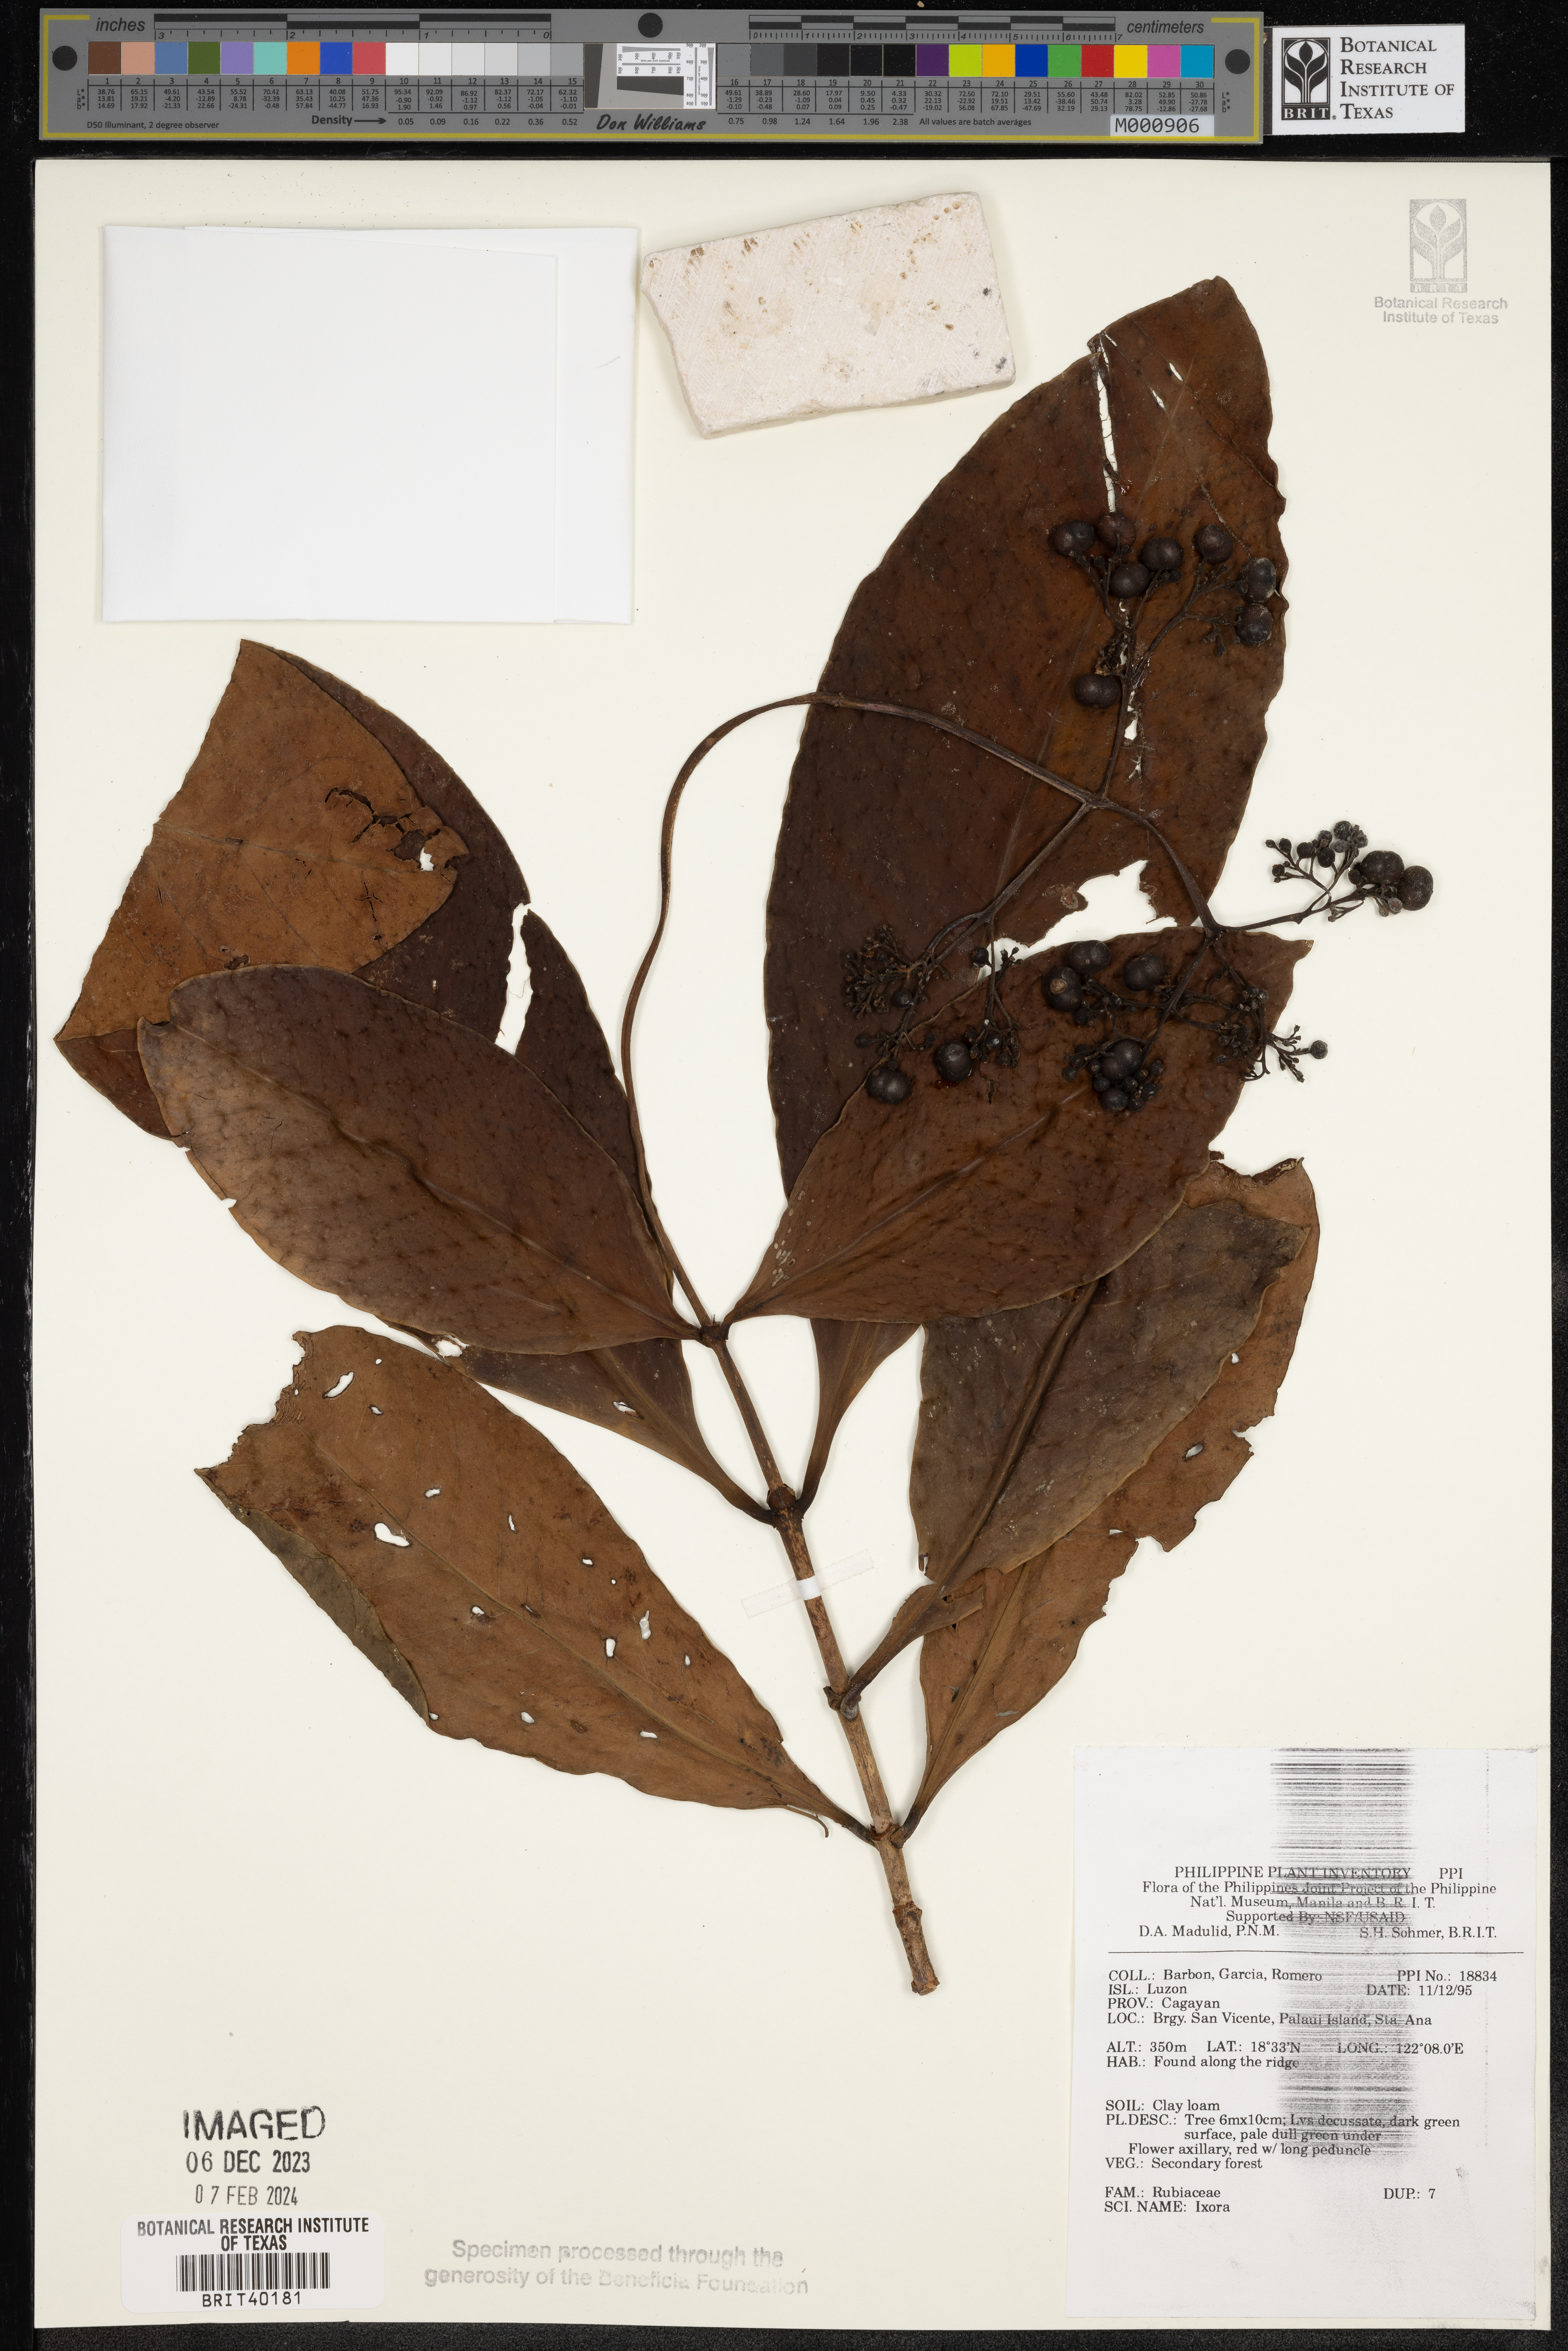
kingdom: Plantae
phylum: Tracheophyta
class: Magnoliopsida
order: Gentianales
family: Rubiaceae
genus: Ixora
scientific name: Ixora
